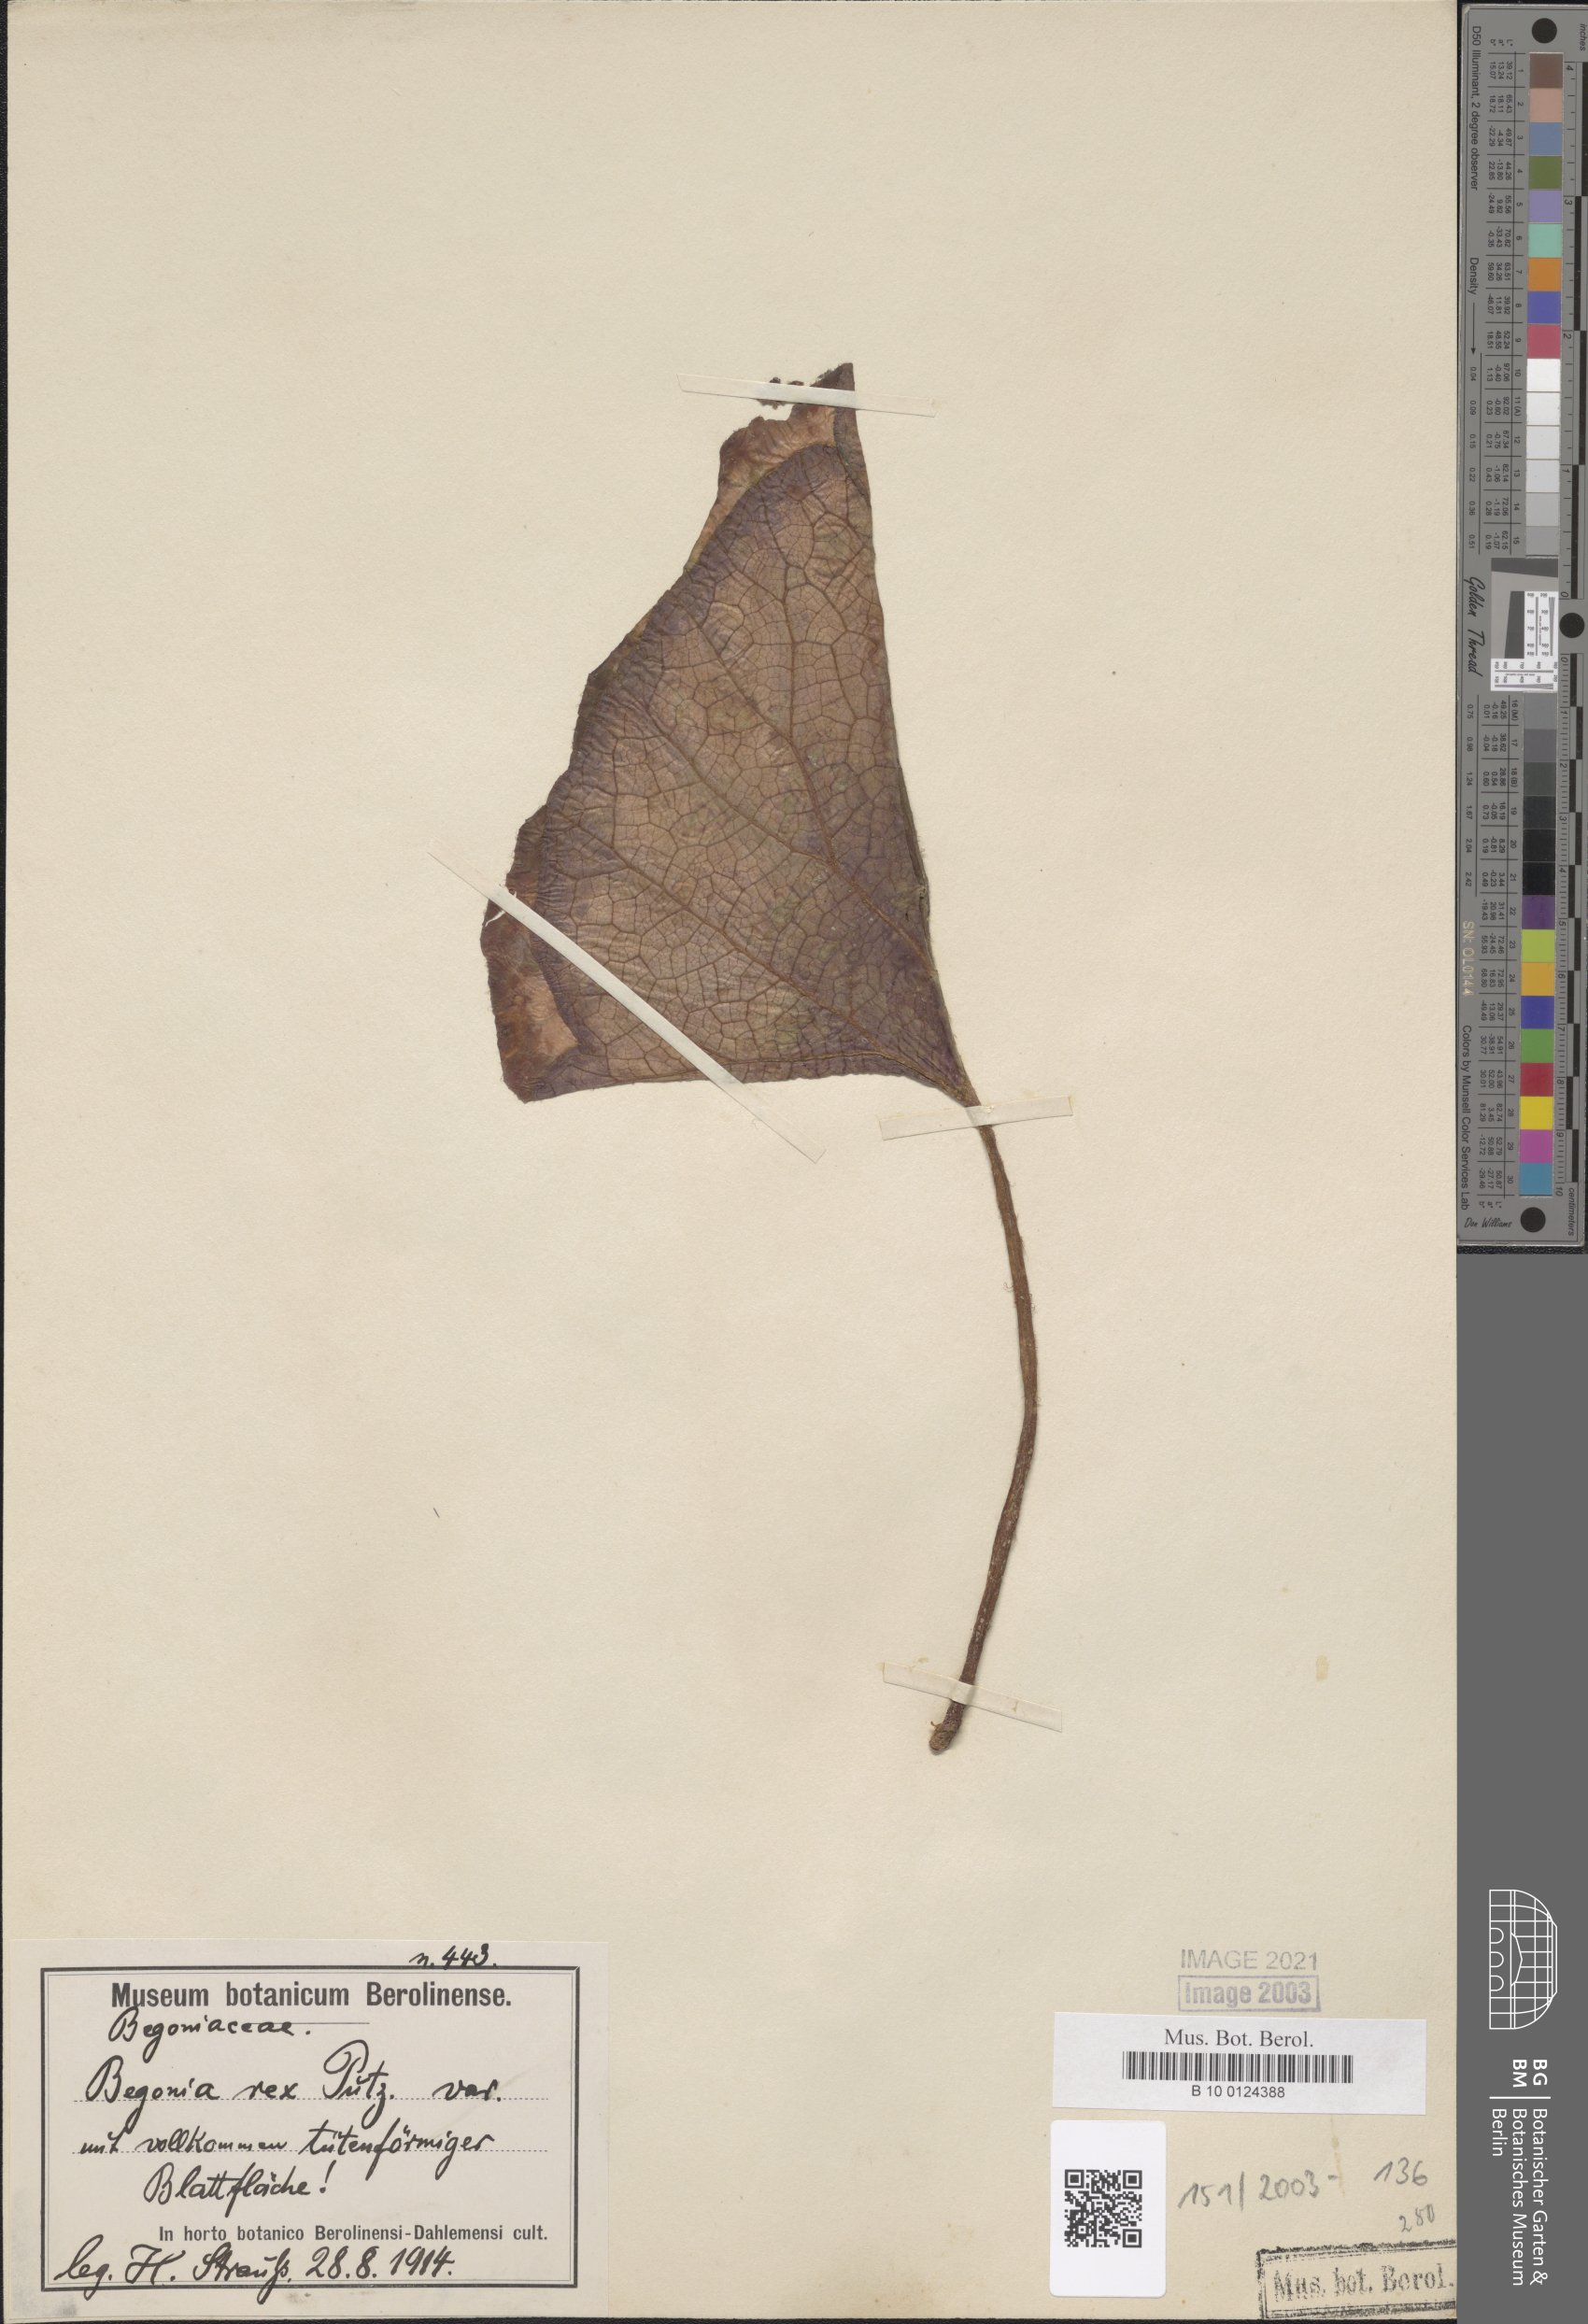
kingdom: Plantae
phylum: Tracheophyta
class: Magnoliopsida
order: Cucurbitales
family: Begoniaceae
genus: Begonia
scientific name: Begonia rex
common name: Painted-leaf begonia
